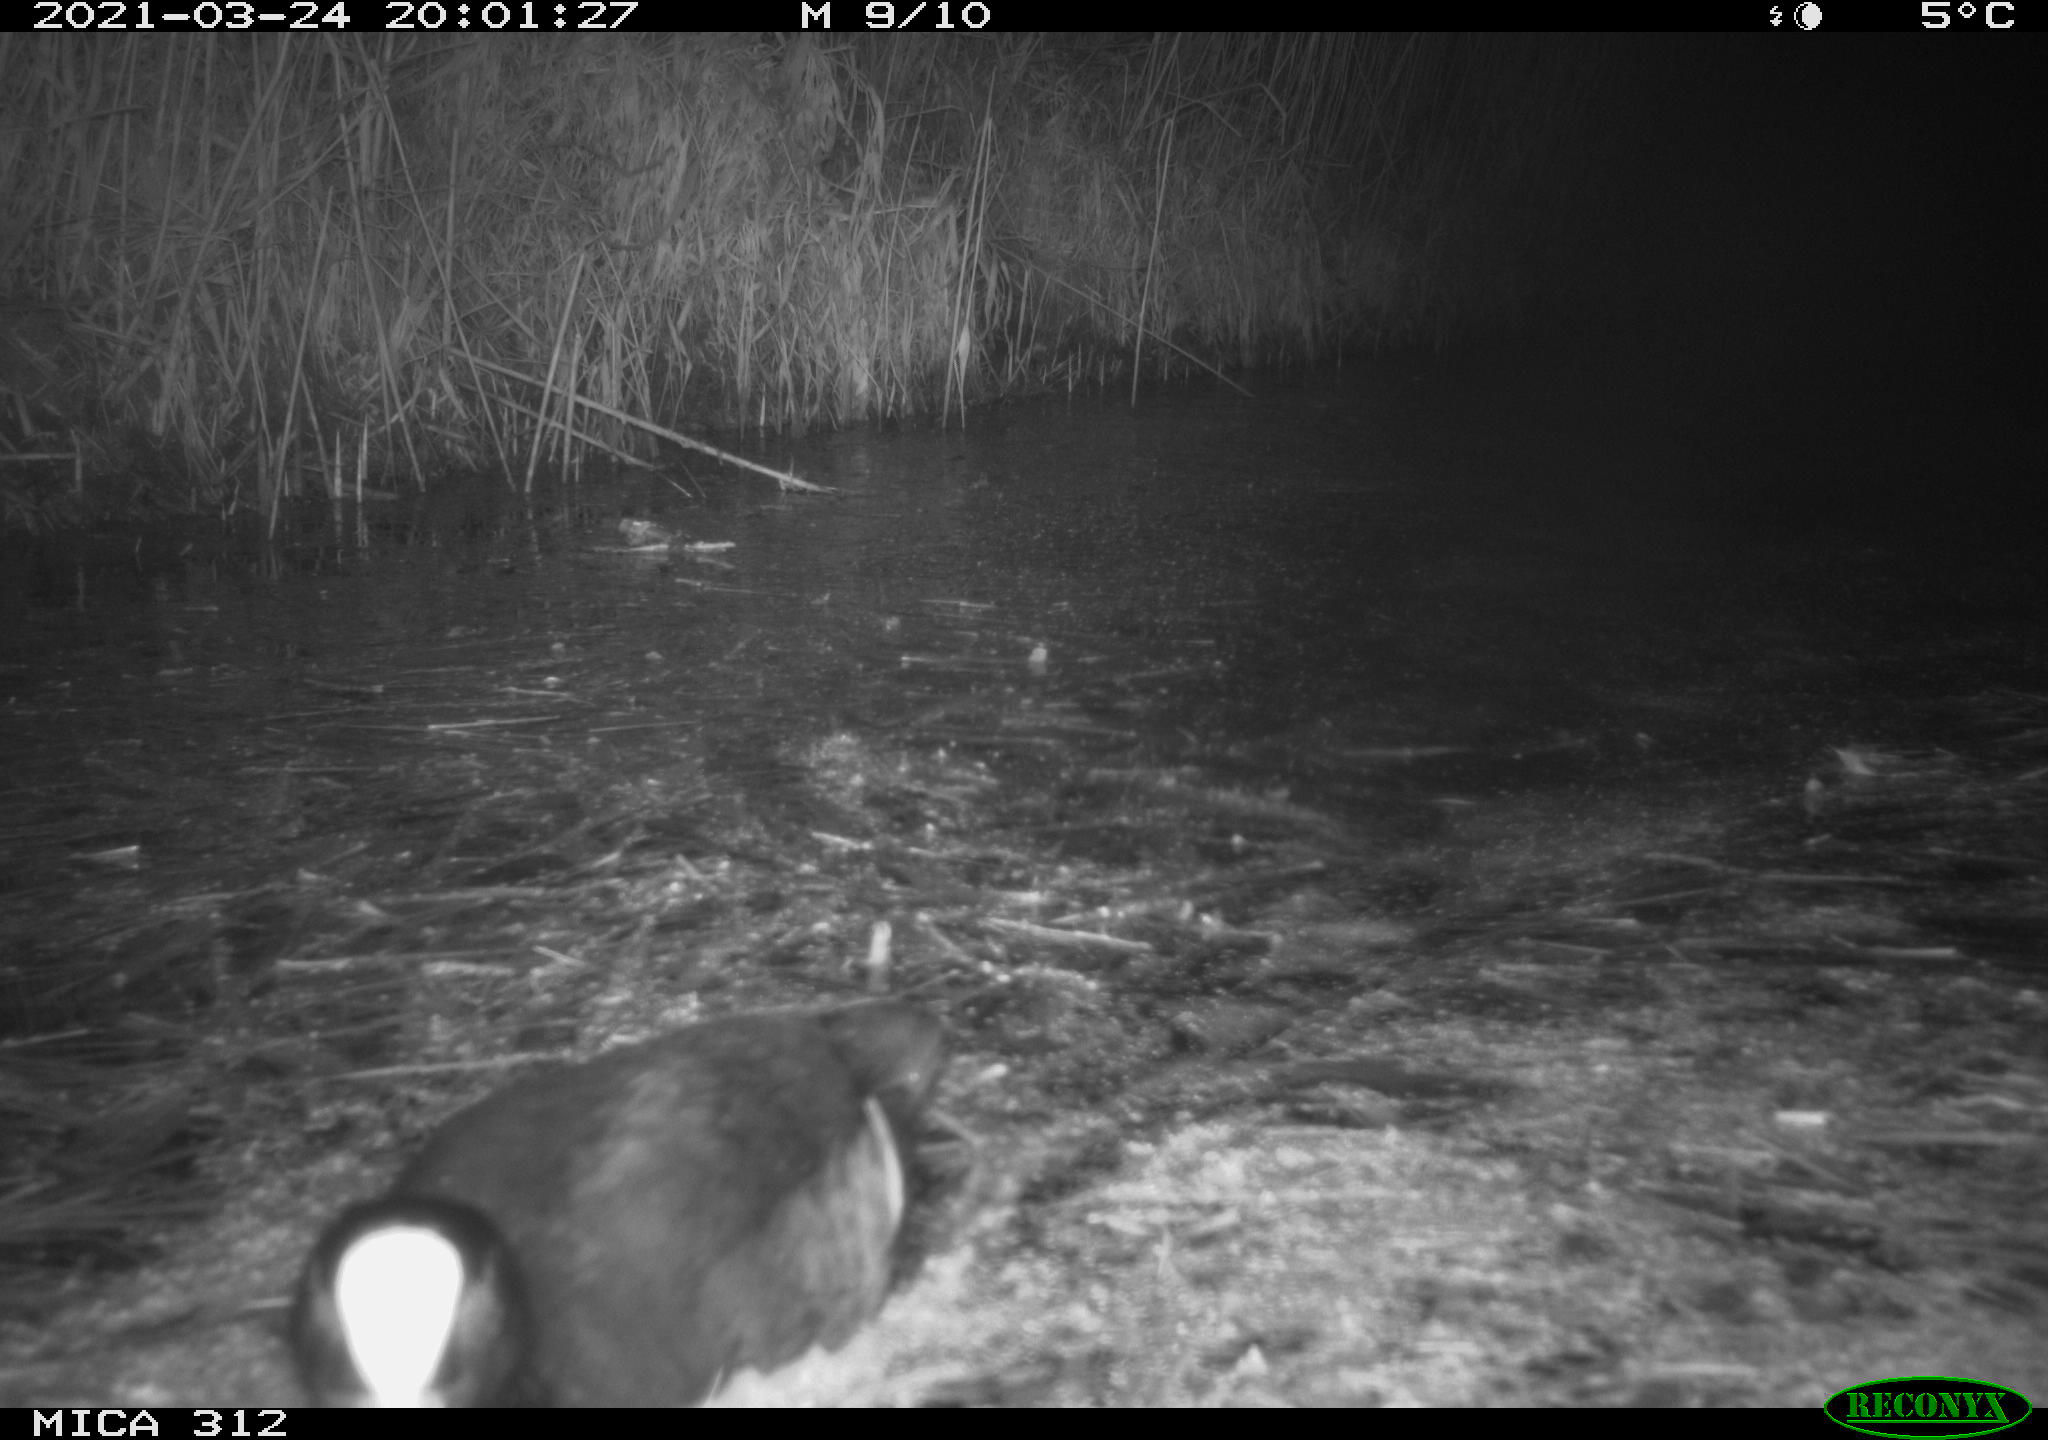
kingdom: Animalia
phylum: Chordata
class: Aves
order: Gruiformes
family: Rallidae
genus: Fulica
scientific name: Fulica atra
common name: Eurasian coot
